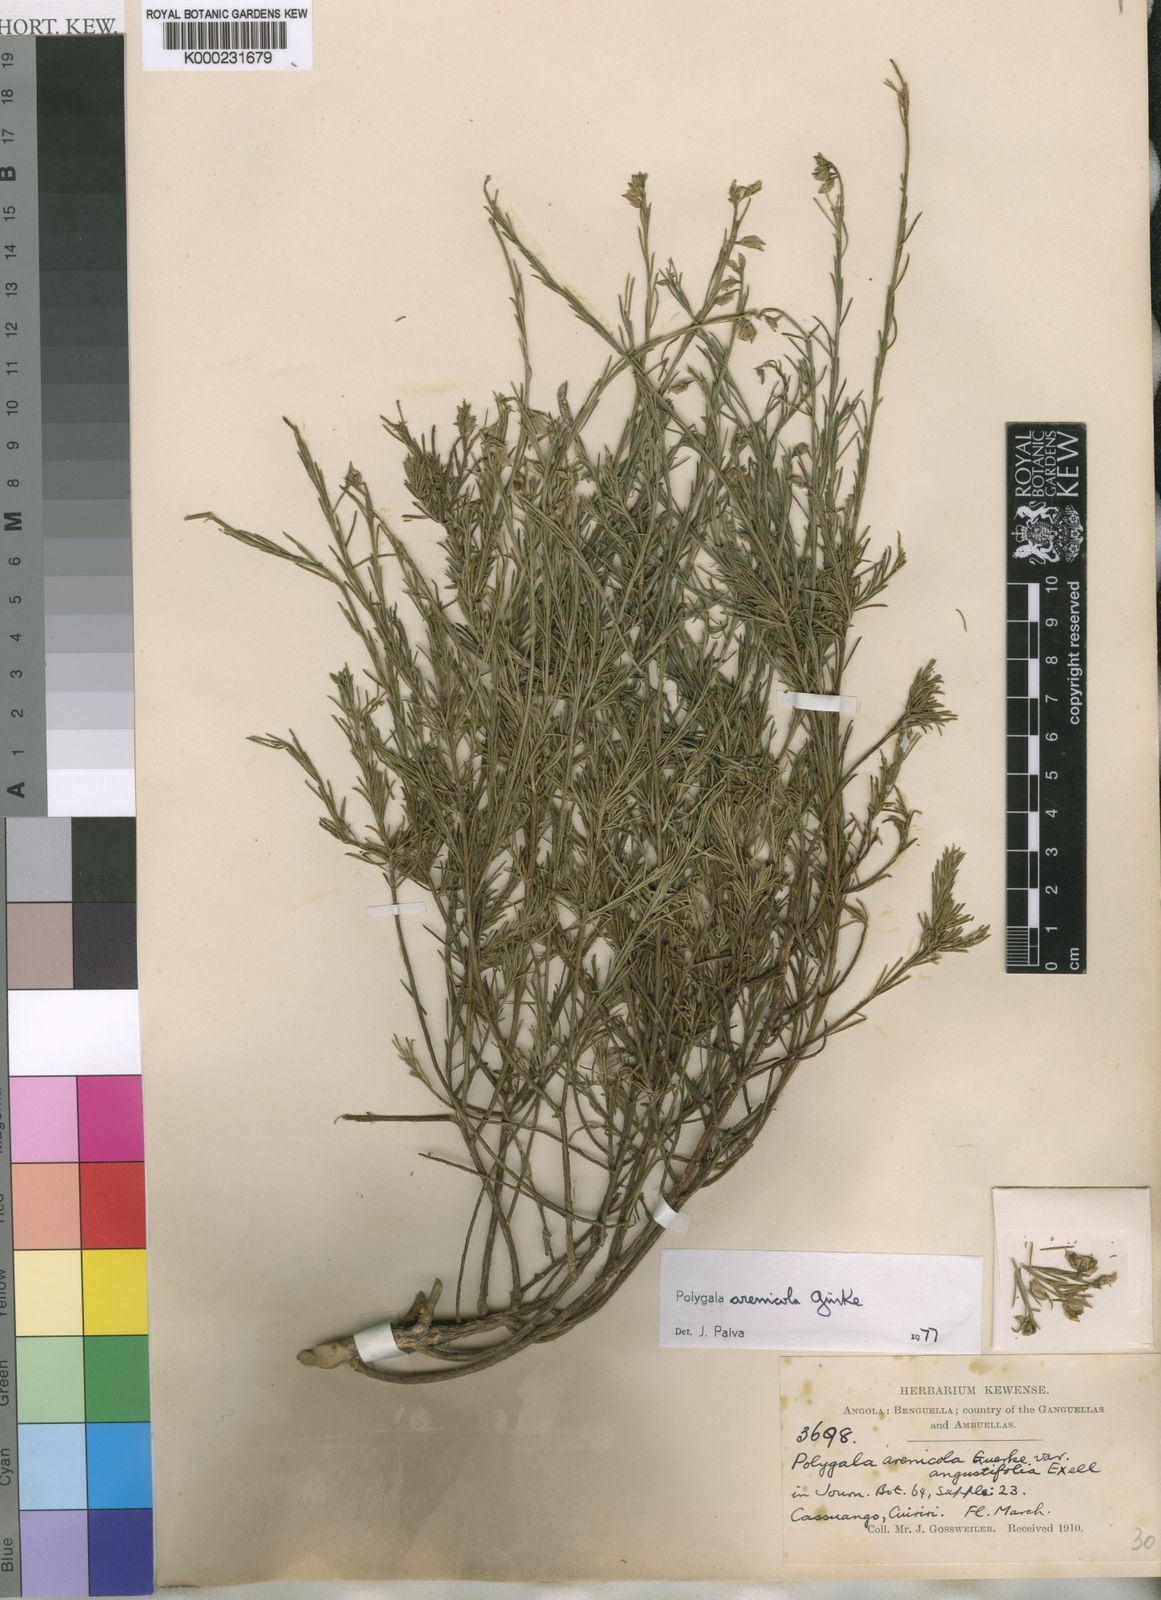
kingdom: Plantae
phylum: Tracheophyta
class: Magnoliopsida
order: Fabales
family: Polygalaceae
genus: Polygala
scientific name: Polygala
